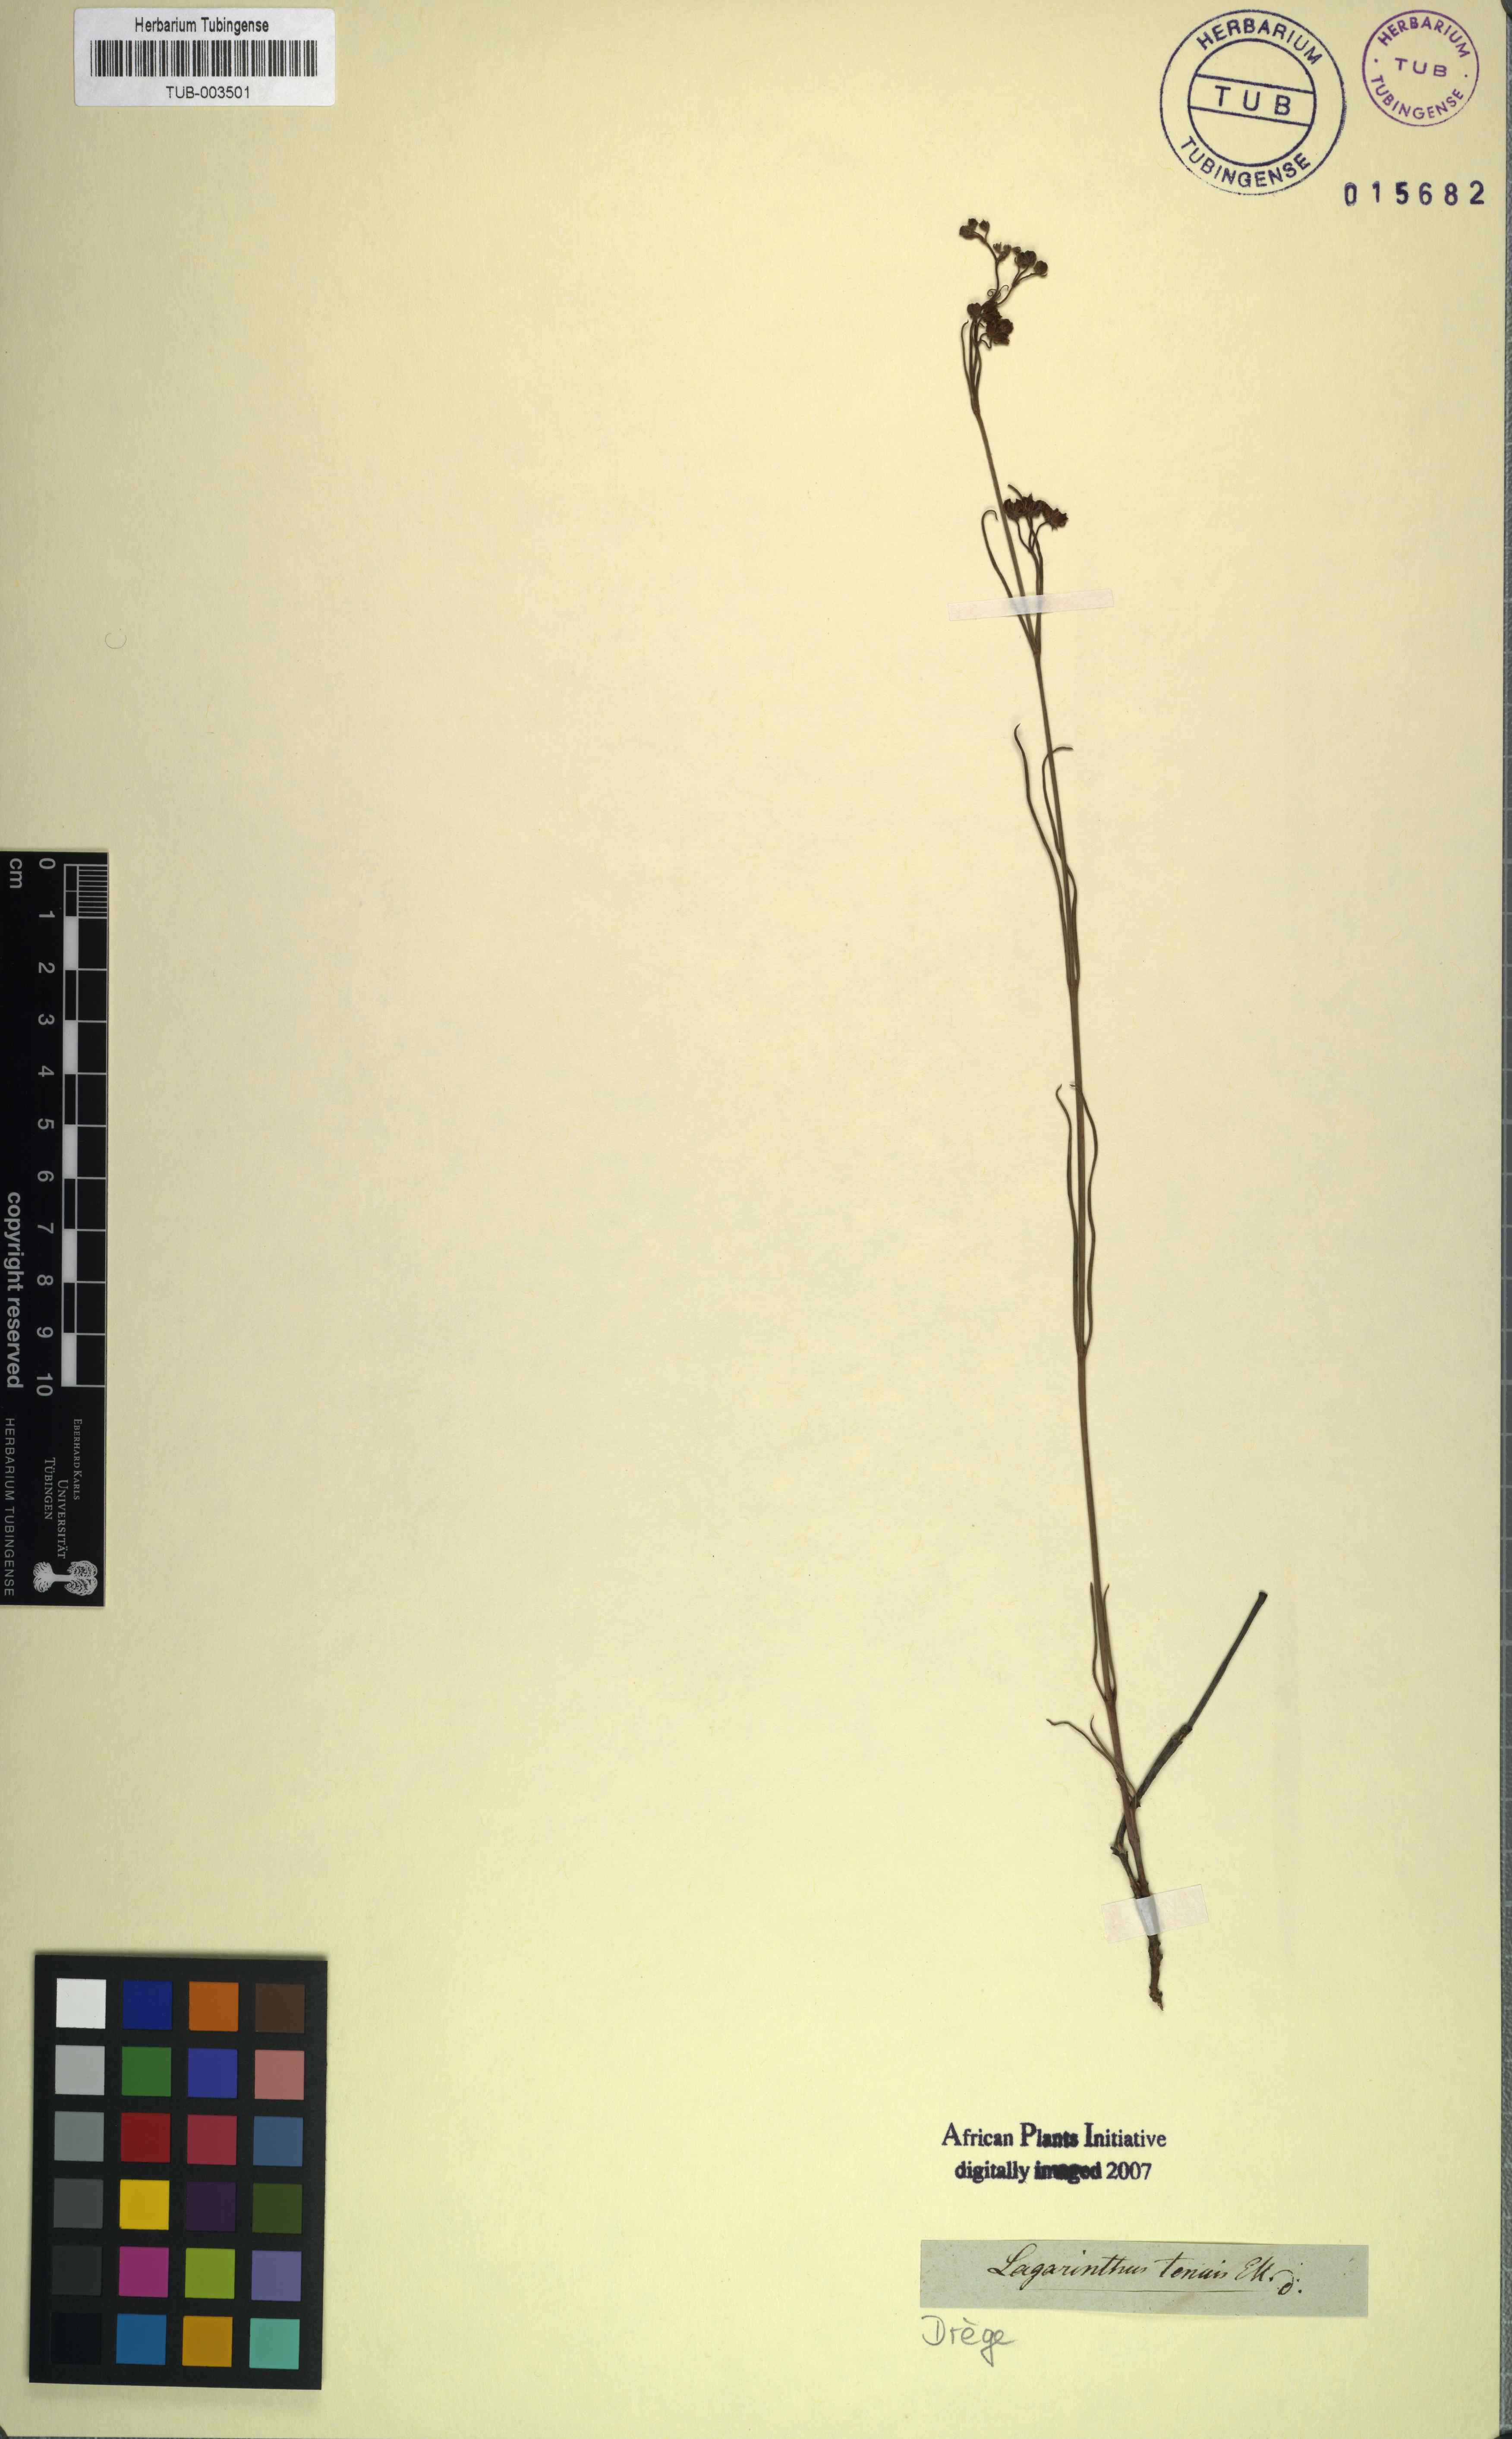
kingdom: Plantae
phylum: Tracheophyta
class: Magnoliopsida
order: Gentianales
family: Apocynaceae
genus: Schizoglossum
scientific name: Schizoglossum linifolium
